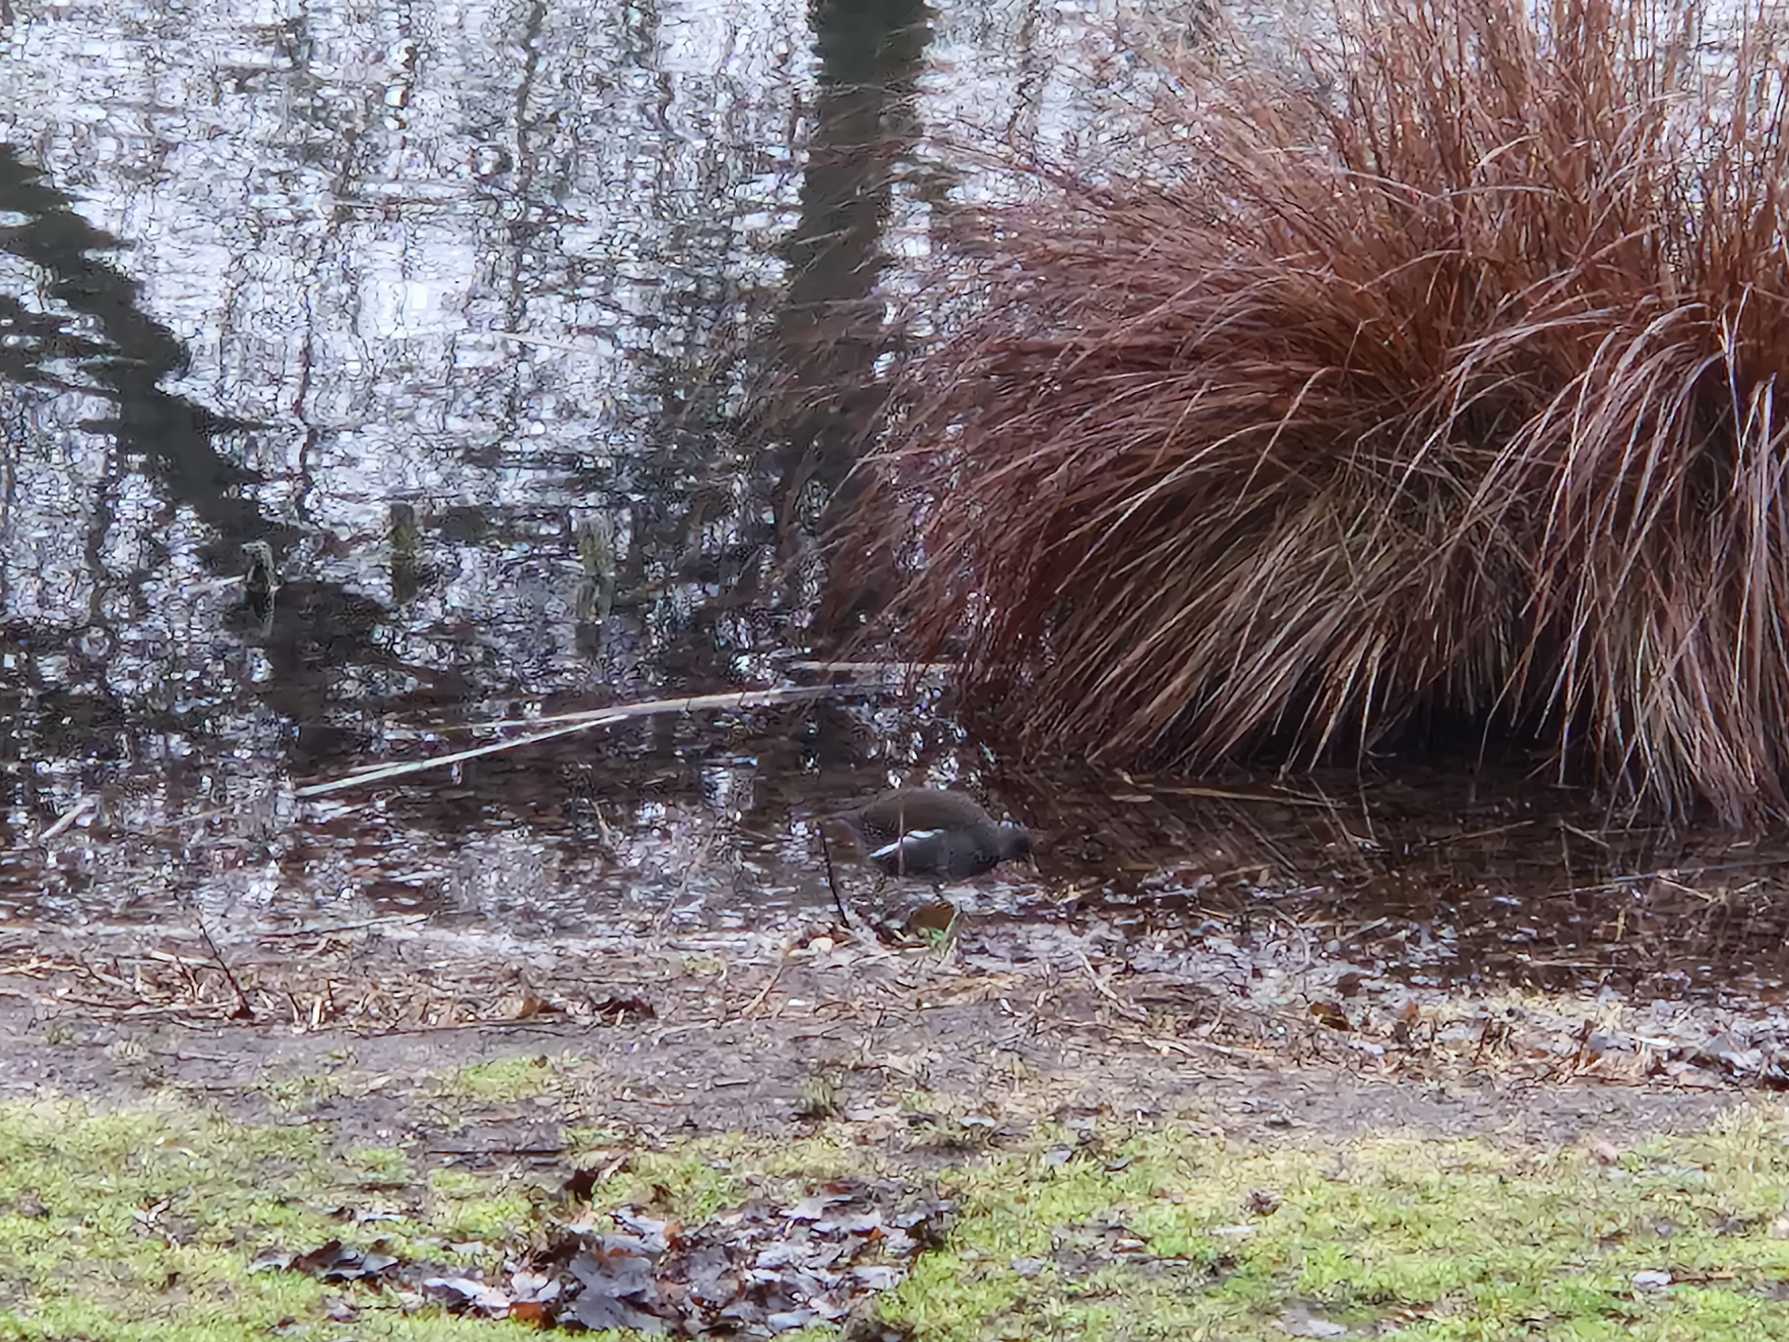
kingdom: Animalia
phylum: Chordata
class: Aves
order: Gruiformes
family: Rallidae
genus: Gallinula
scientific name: Gallinula chloropus
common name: Grønbenet rørhøne
